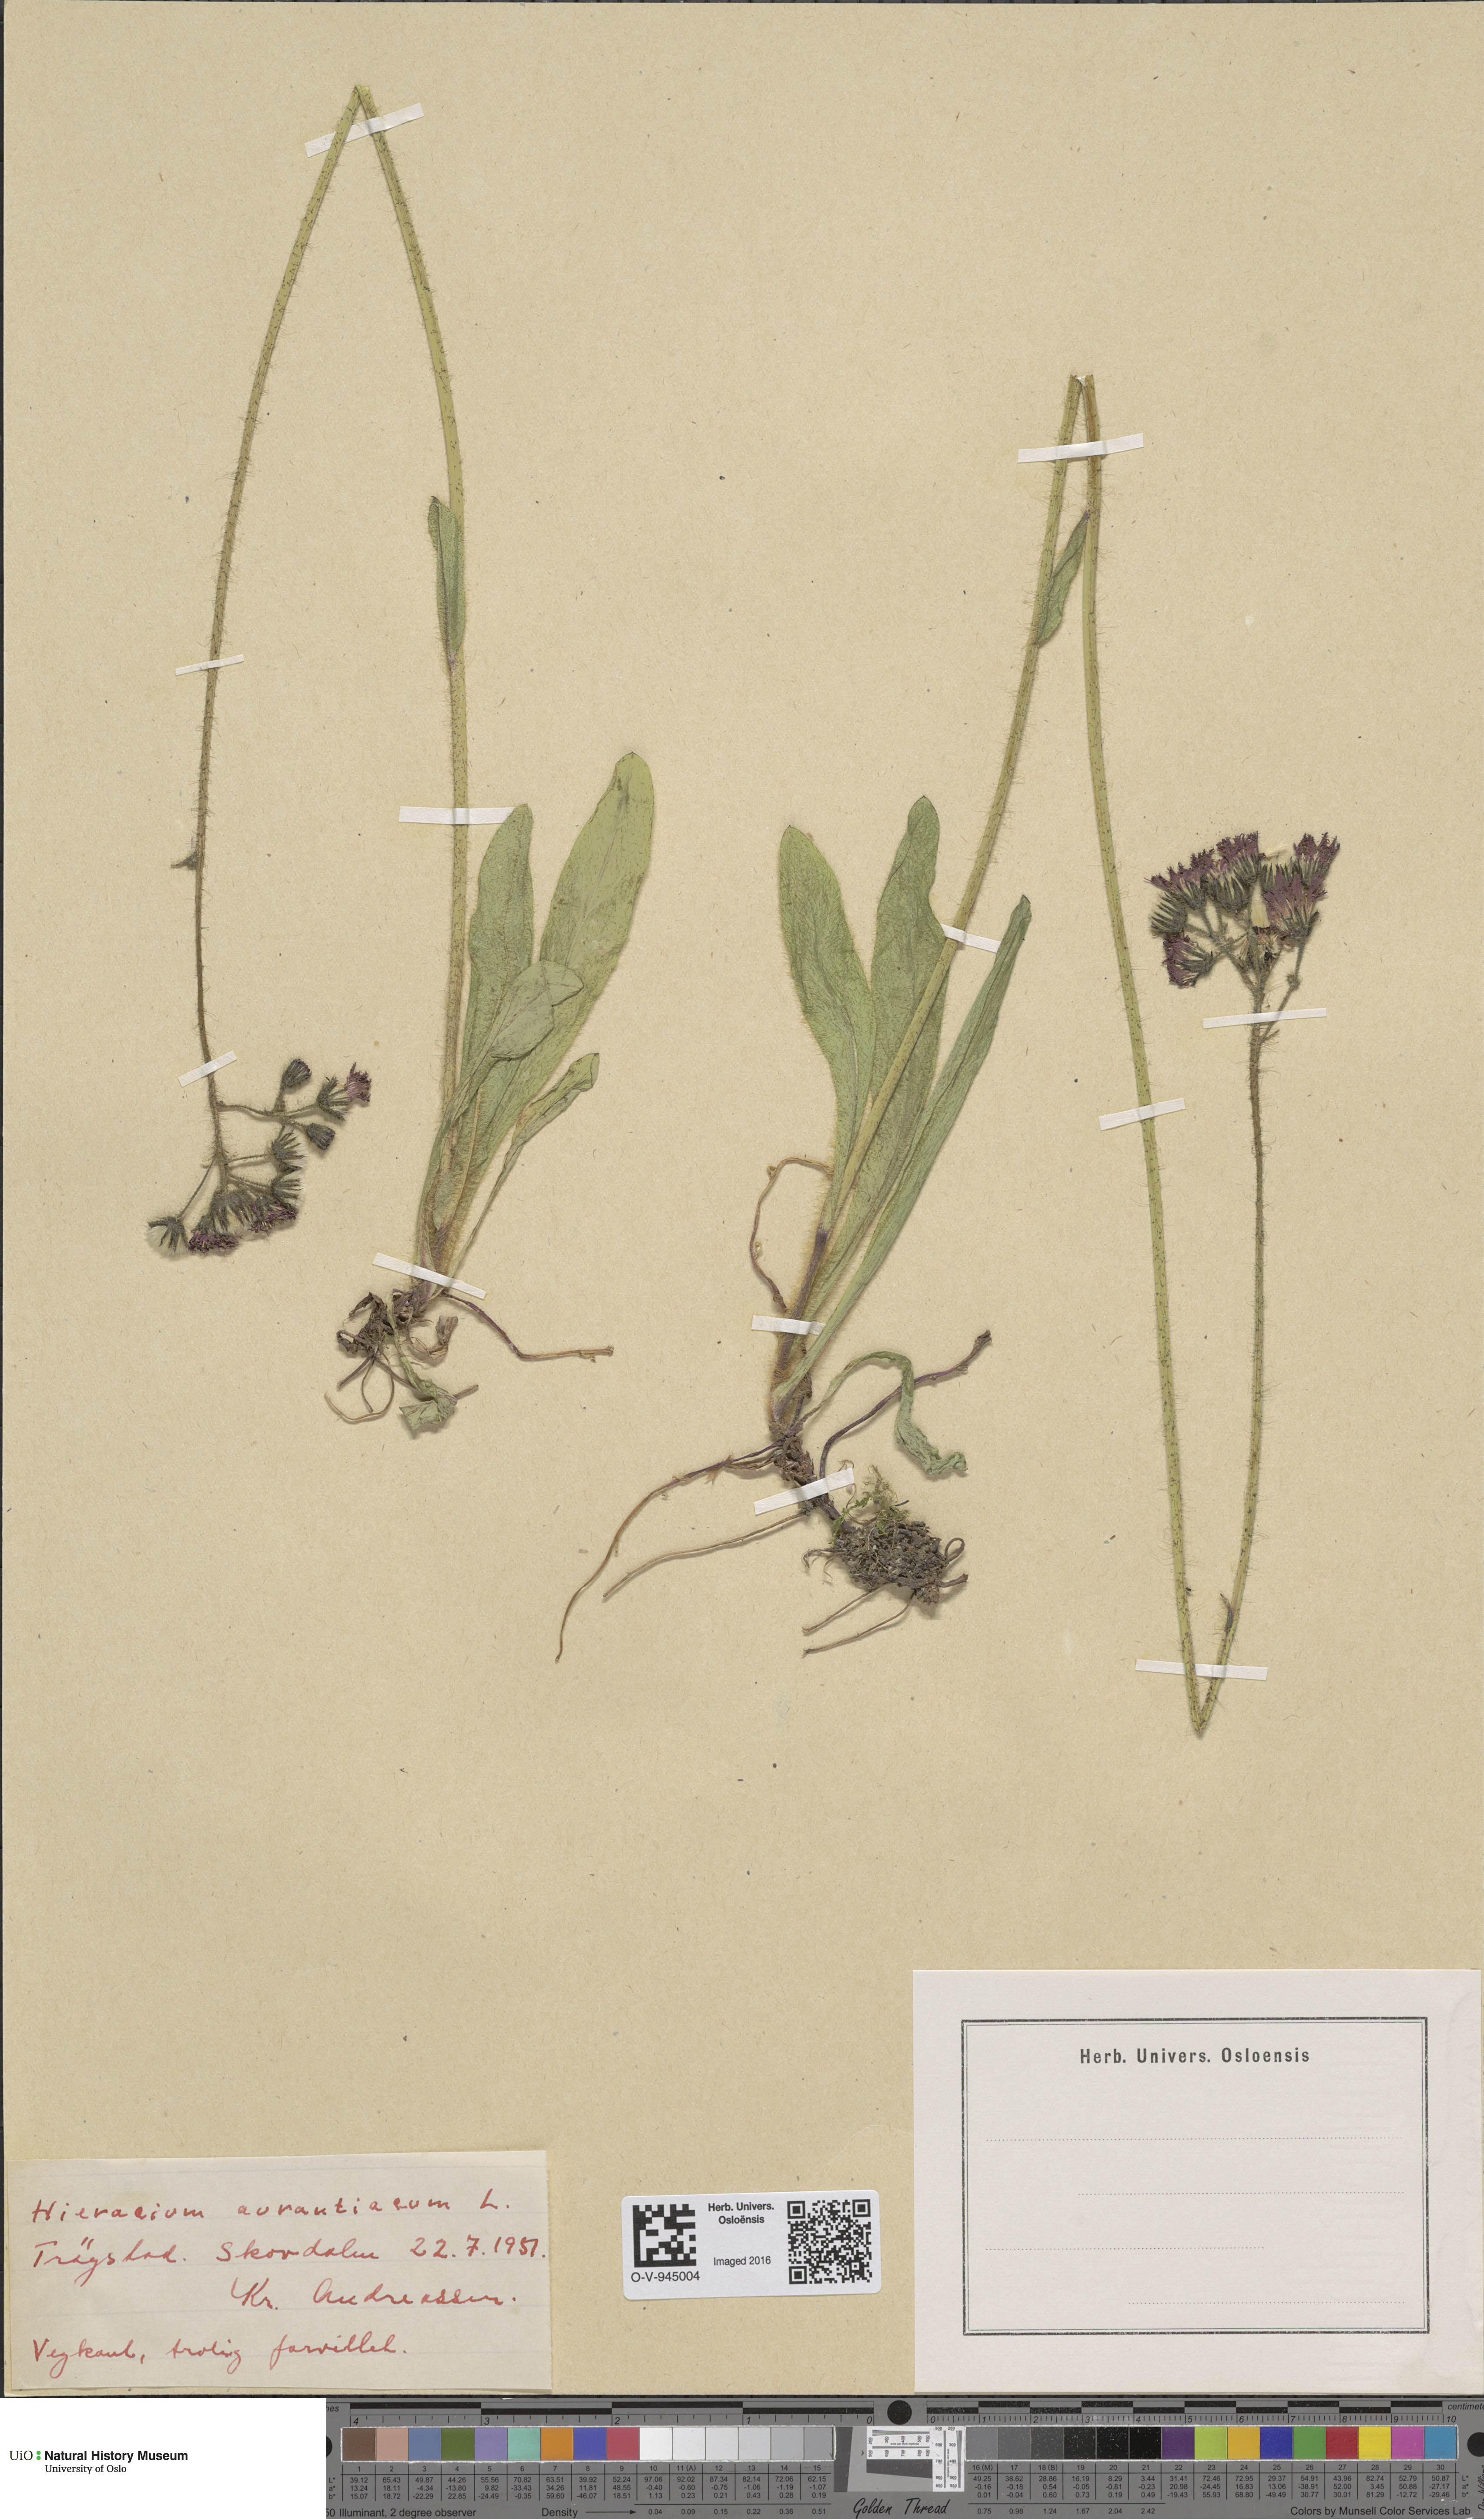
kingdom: Plantae
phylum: Tracheophyta
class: Magnoliopsida
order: Asterales
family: Asteraceae
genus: Pilosella
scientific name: Pilosella aurantiaca
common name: Fox-and-cubs
